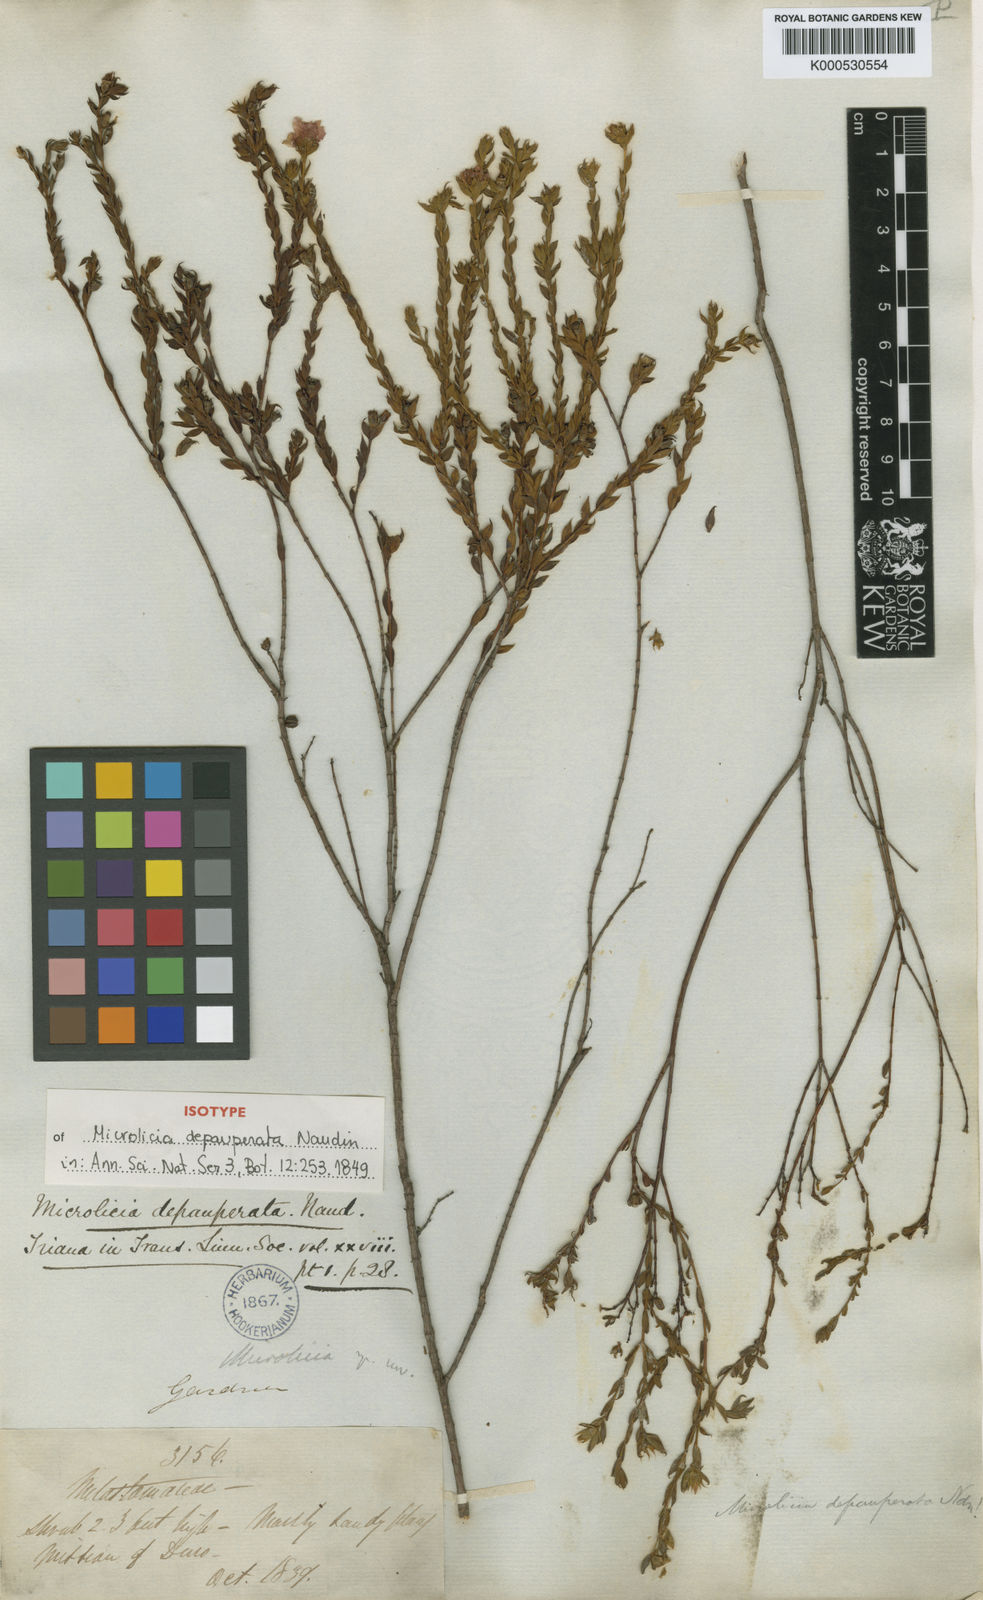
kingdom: Plantae
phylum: Tracheophyta
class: Magnoliopsida
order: Myrtales
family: Melastomataceae
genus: Microlicia
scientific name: Microlicia insignis
